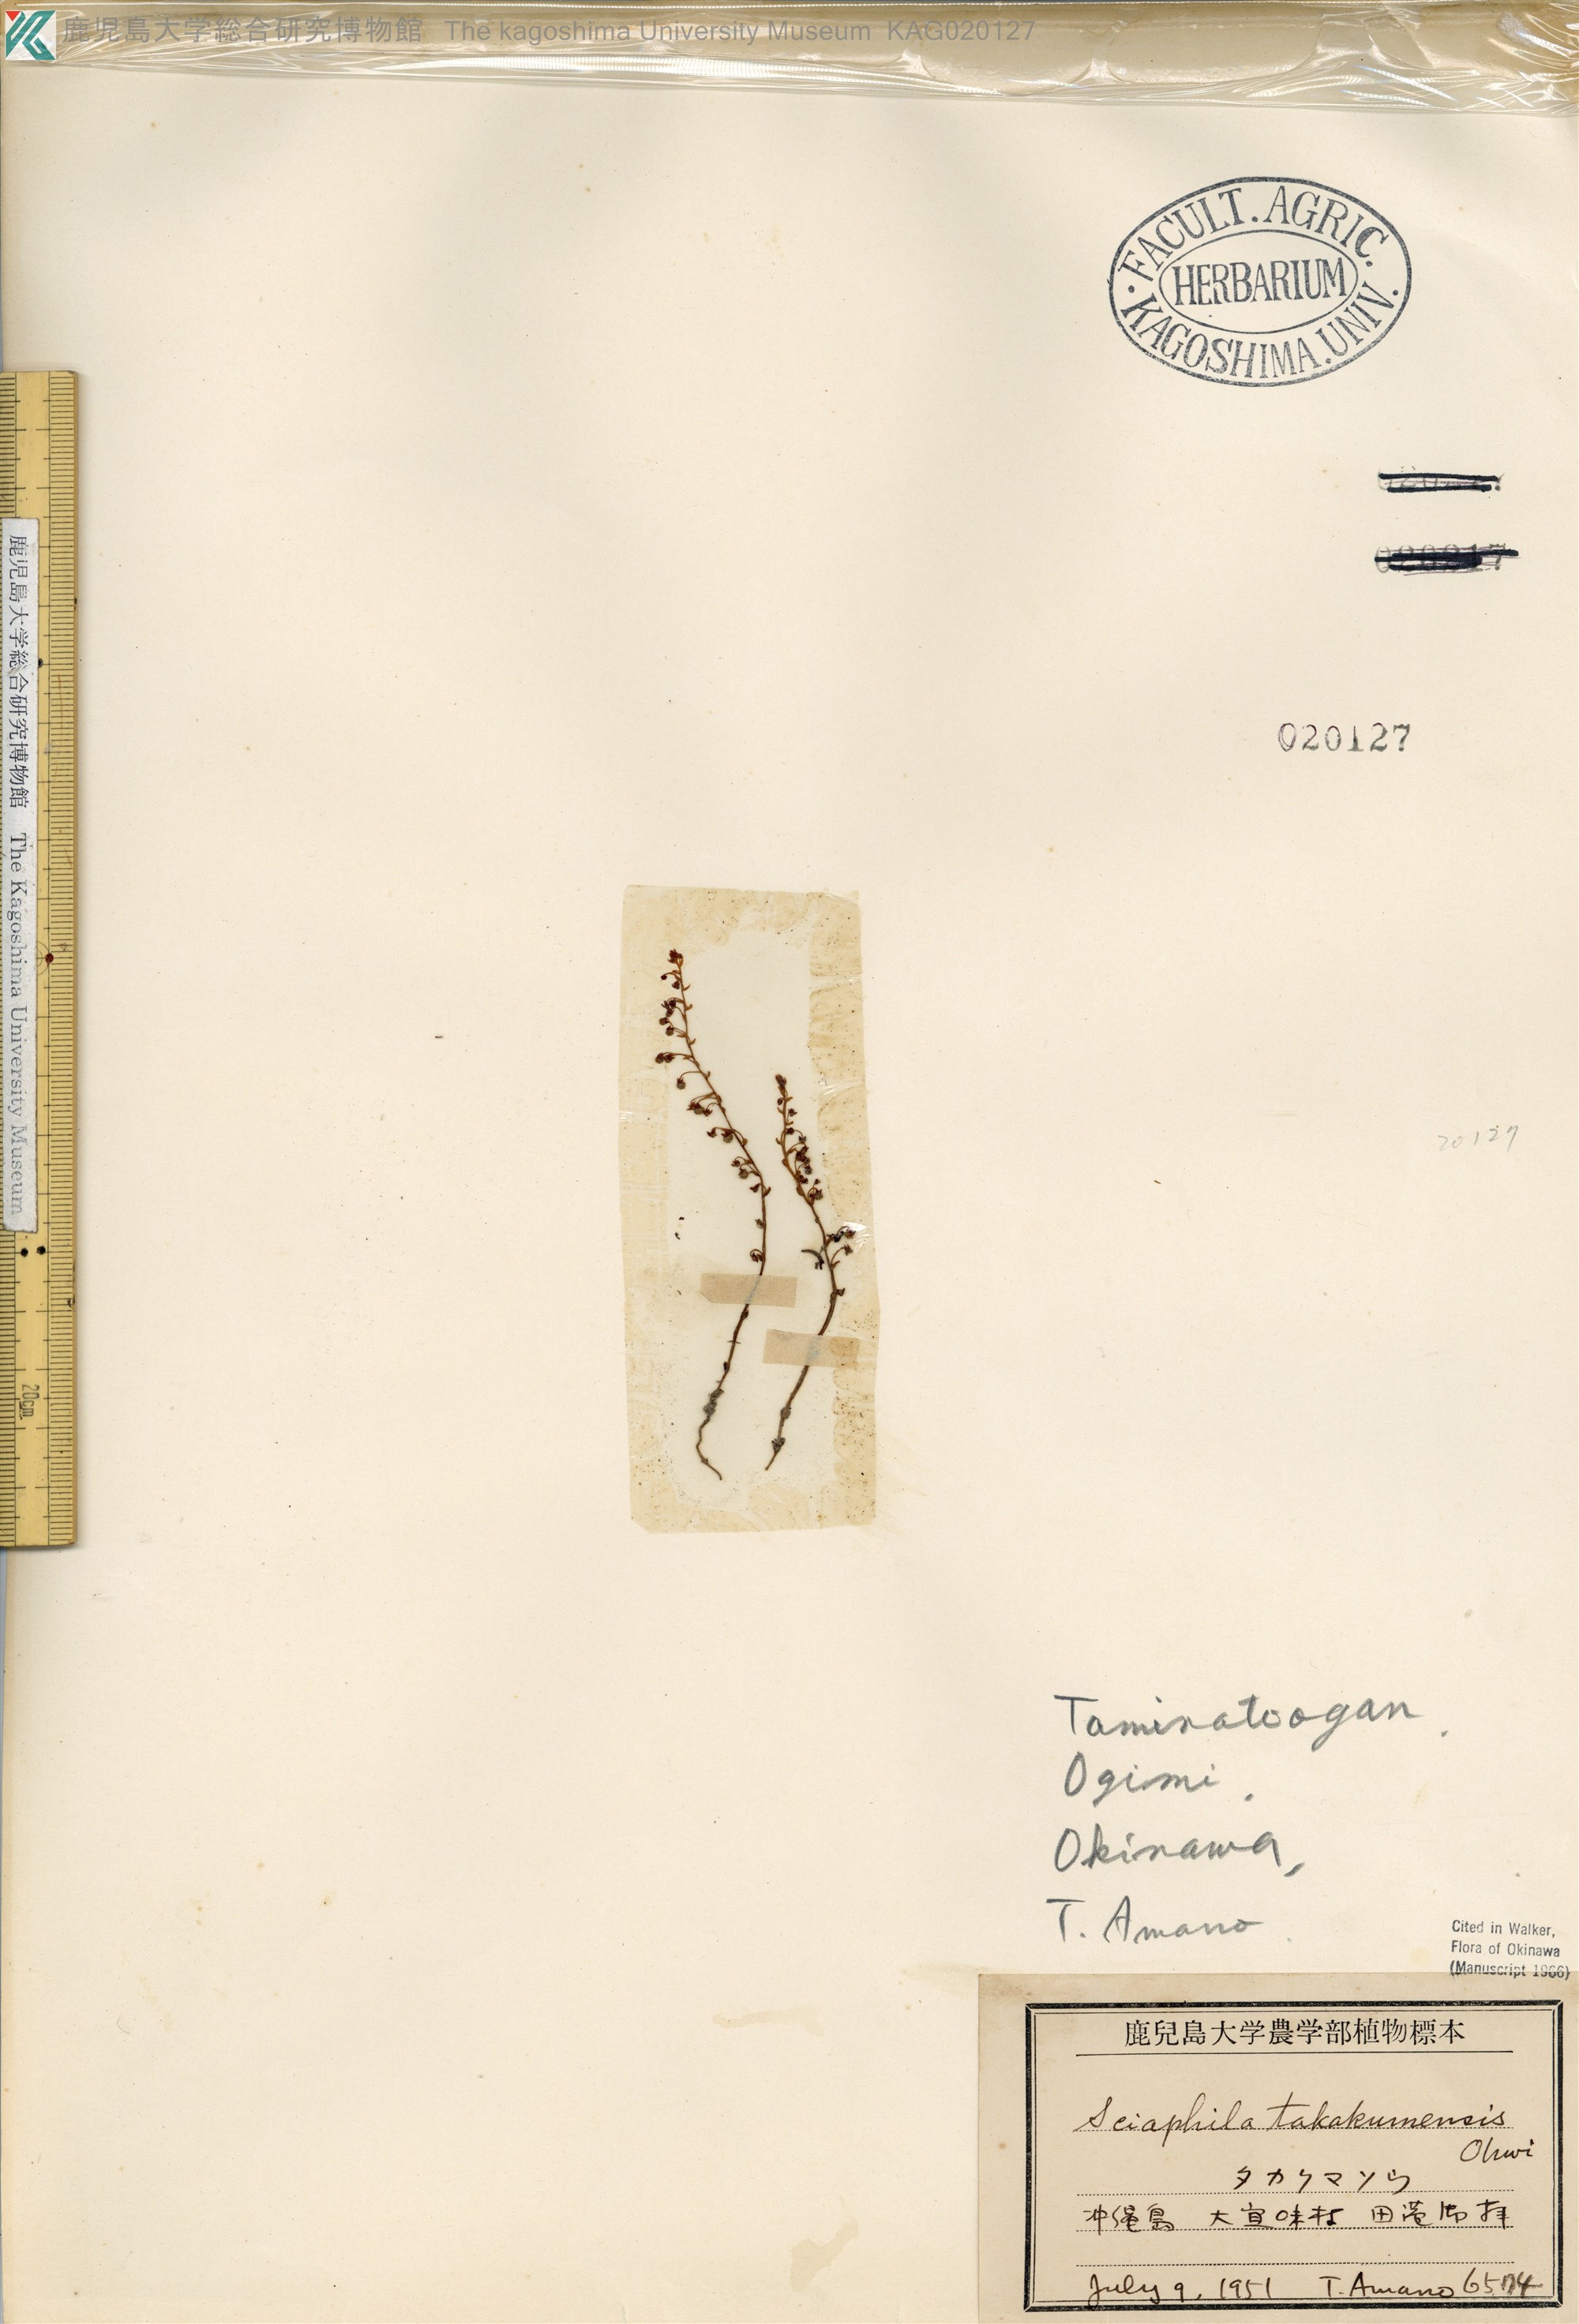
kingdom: Plantae
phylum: Tracheophyta
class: Liliopsida
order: Pandanales
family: Triuridaceae
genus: Sciaphila
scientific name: Sciaphila tenella
